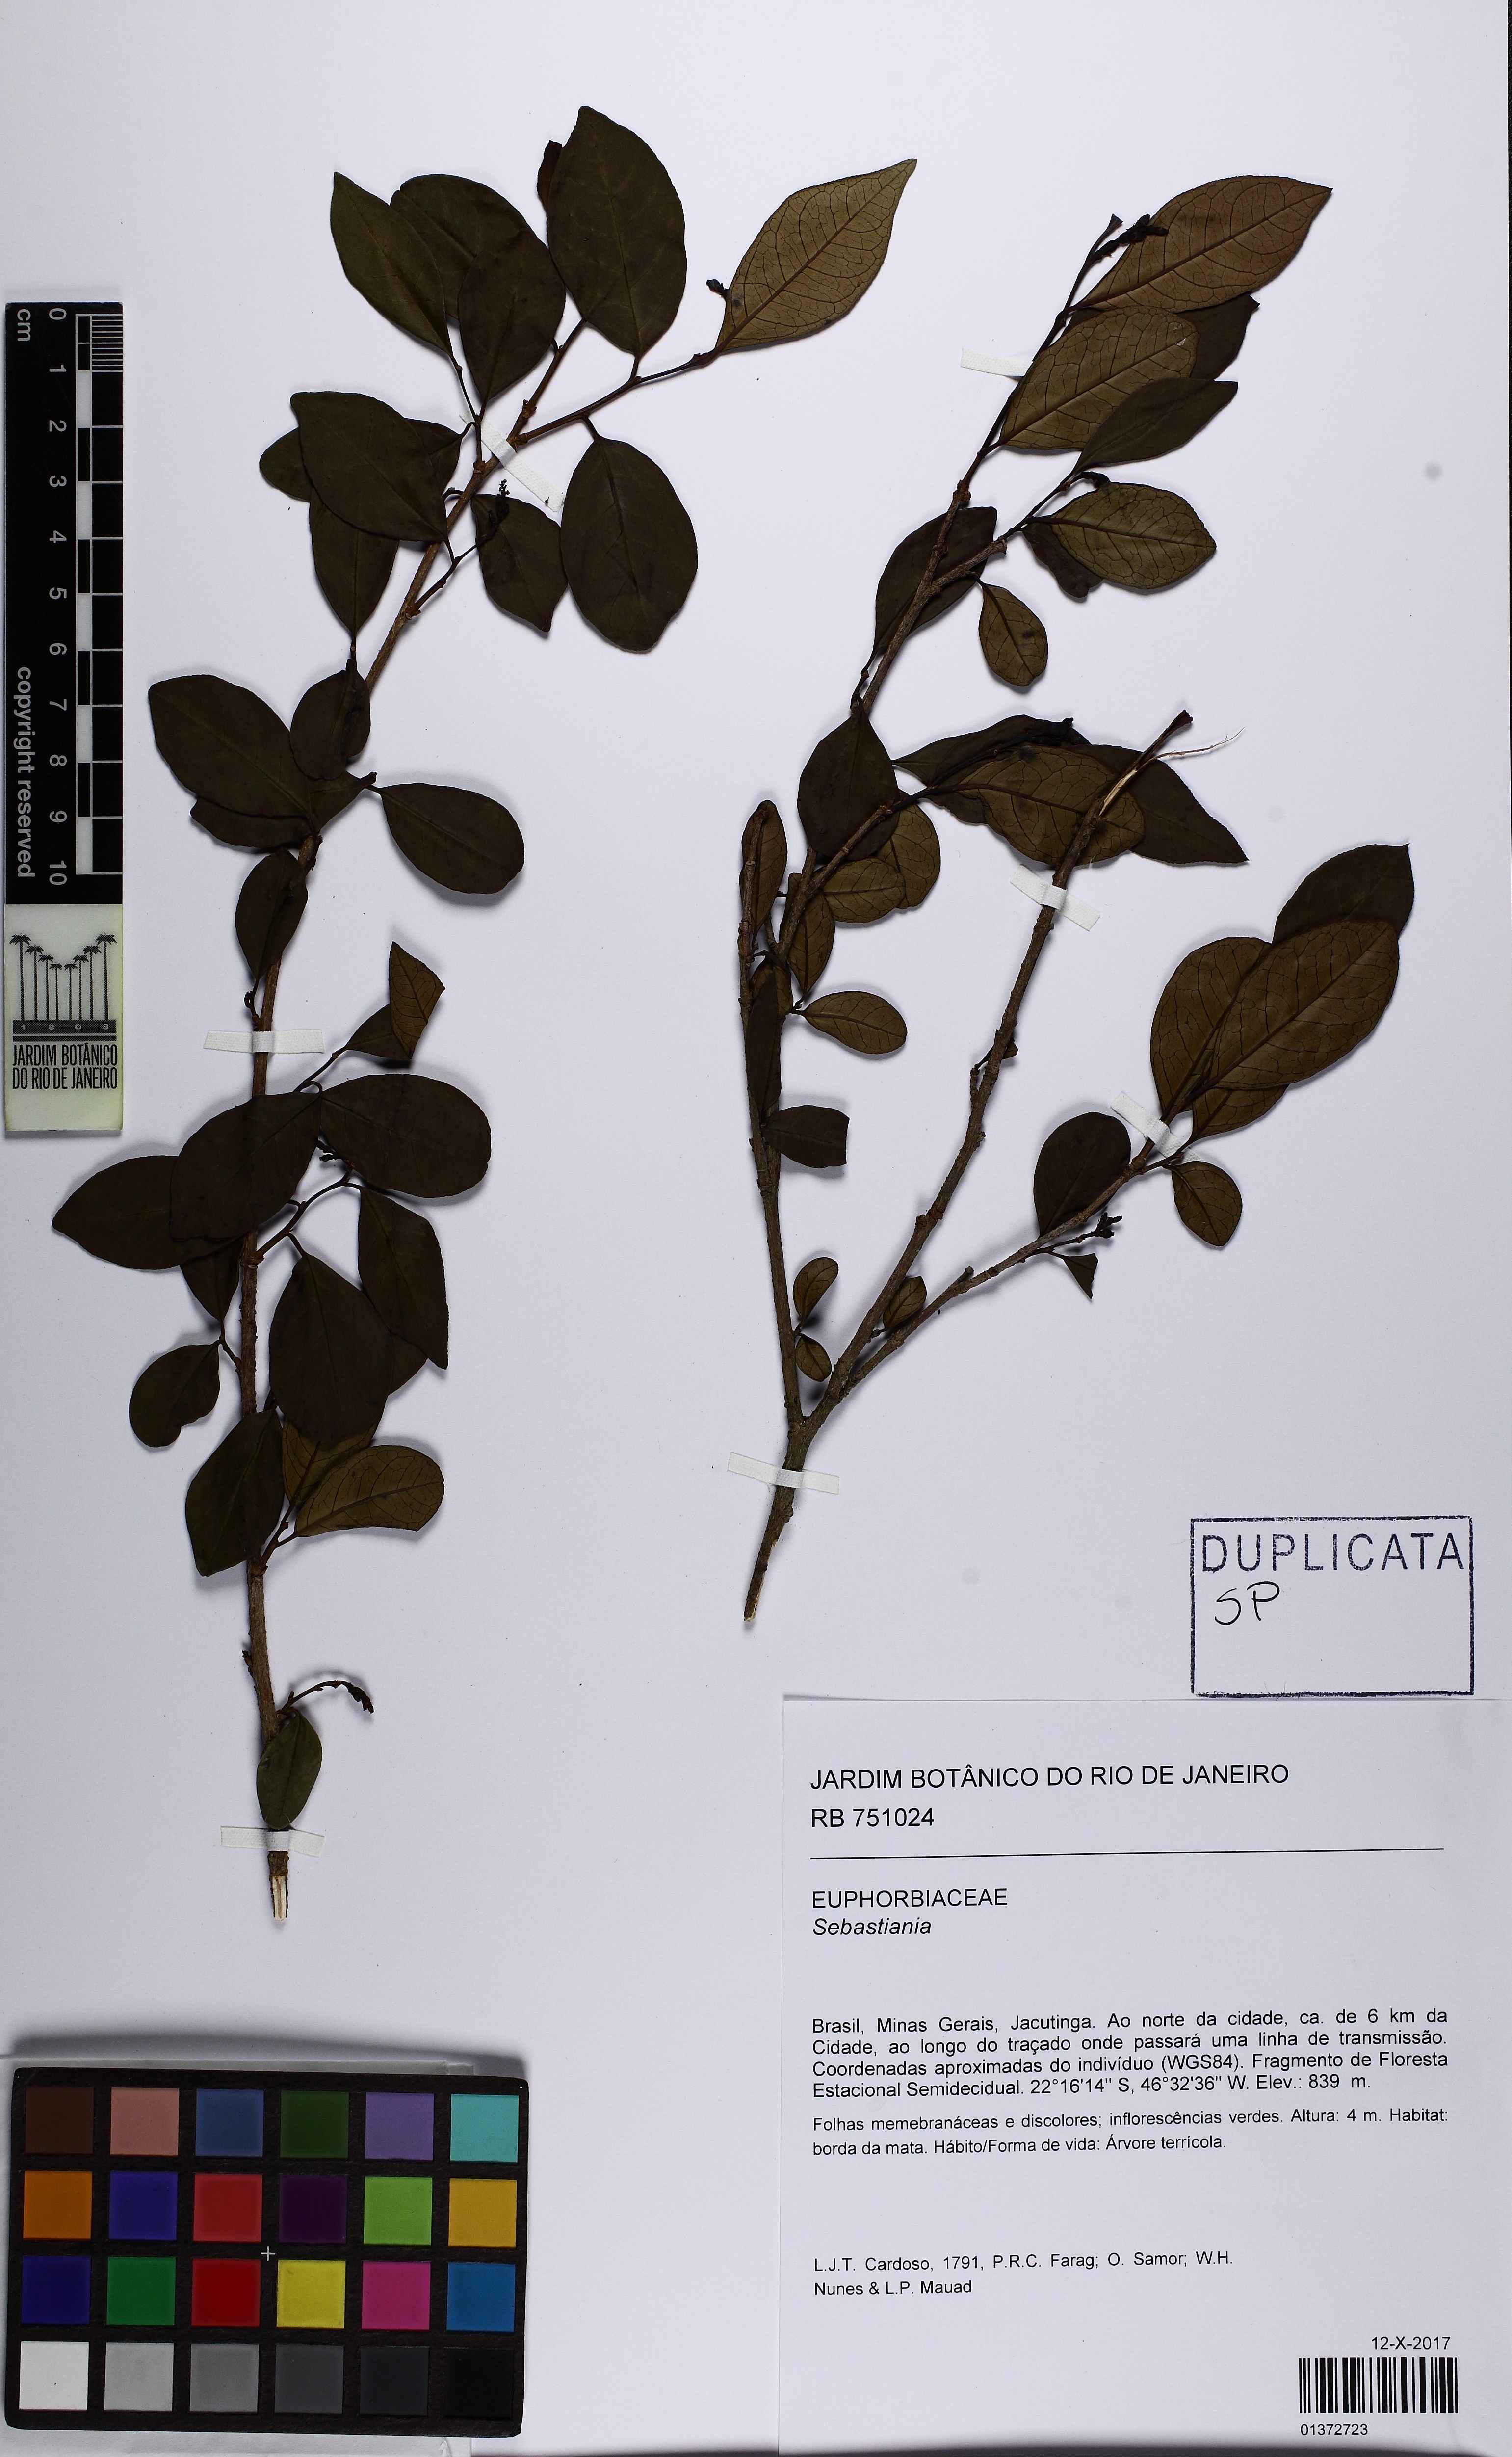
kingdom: Plantae
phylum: Tracheophyta
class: Magnoliopsida
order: Malpighiales
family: Euphorbiaceae
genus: Sebastiania
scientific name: Sebastiania
